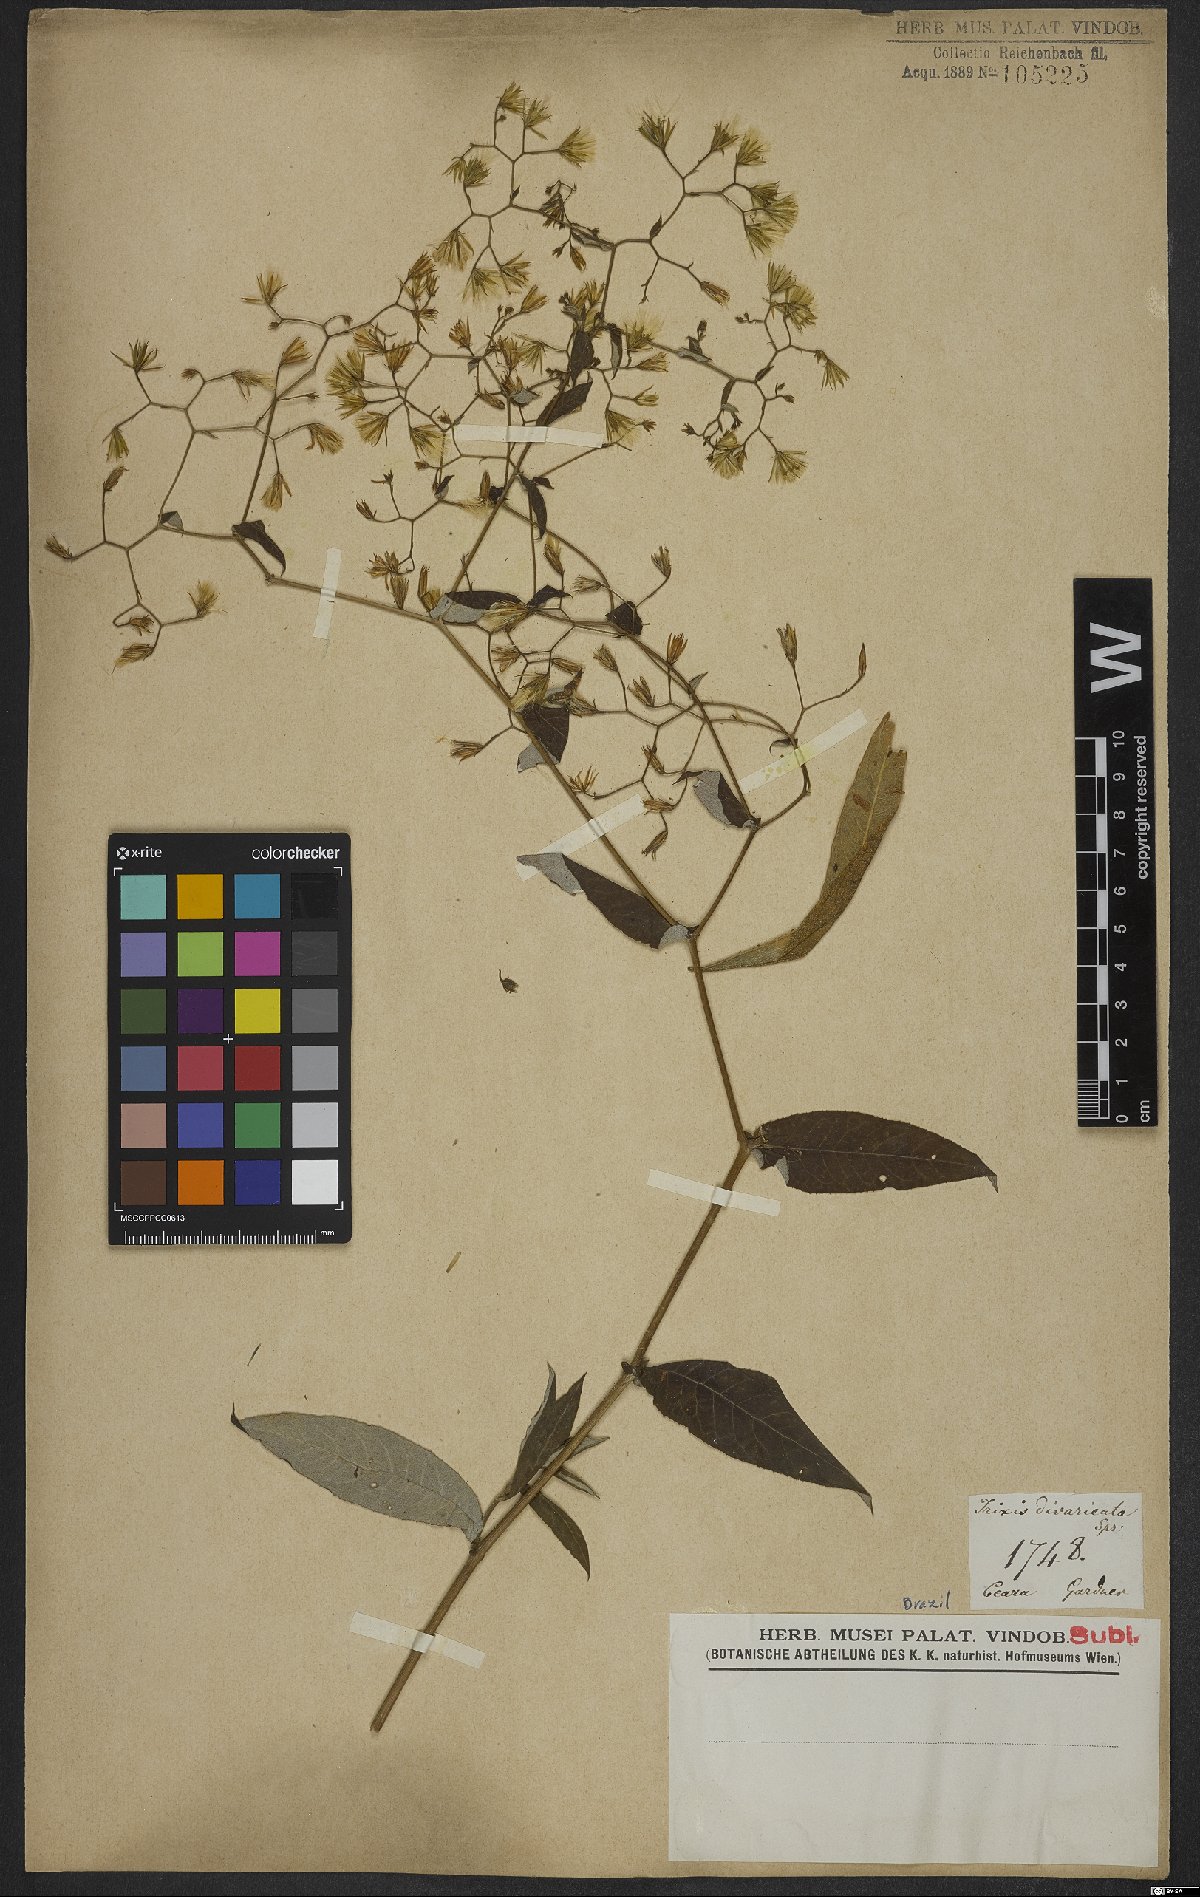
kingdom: Plantae
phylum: Tracheophyta
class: Magnoliopsida
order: Asterales
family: Asteraceae
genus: Trixis
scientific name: Trixis divaricata
